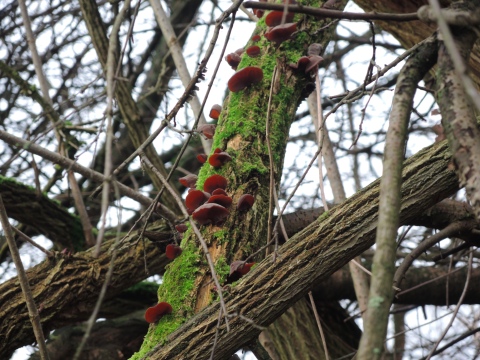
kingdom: Fungi
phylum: Basidiomycota
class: Agaricomycetes
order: Auriculariales
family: Auriculariaceae
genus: Auricularia
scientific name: Auricularia auricula-judae
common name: almindelig judasøre
